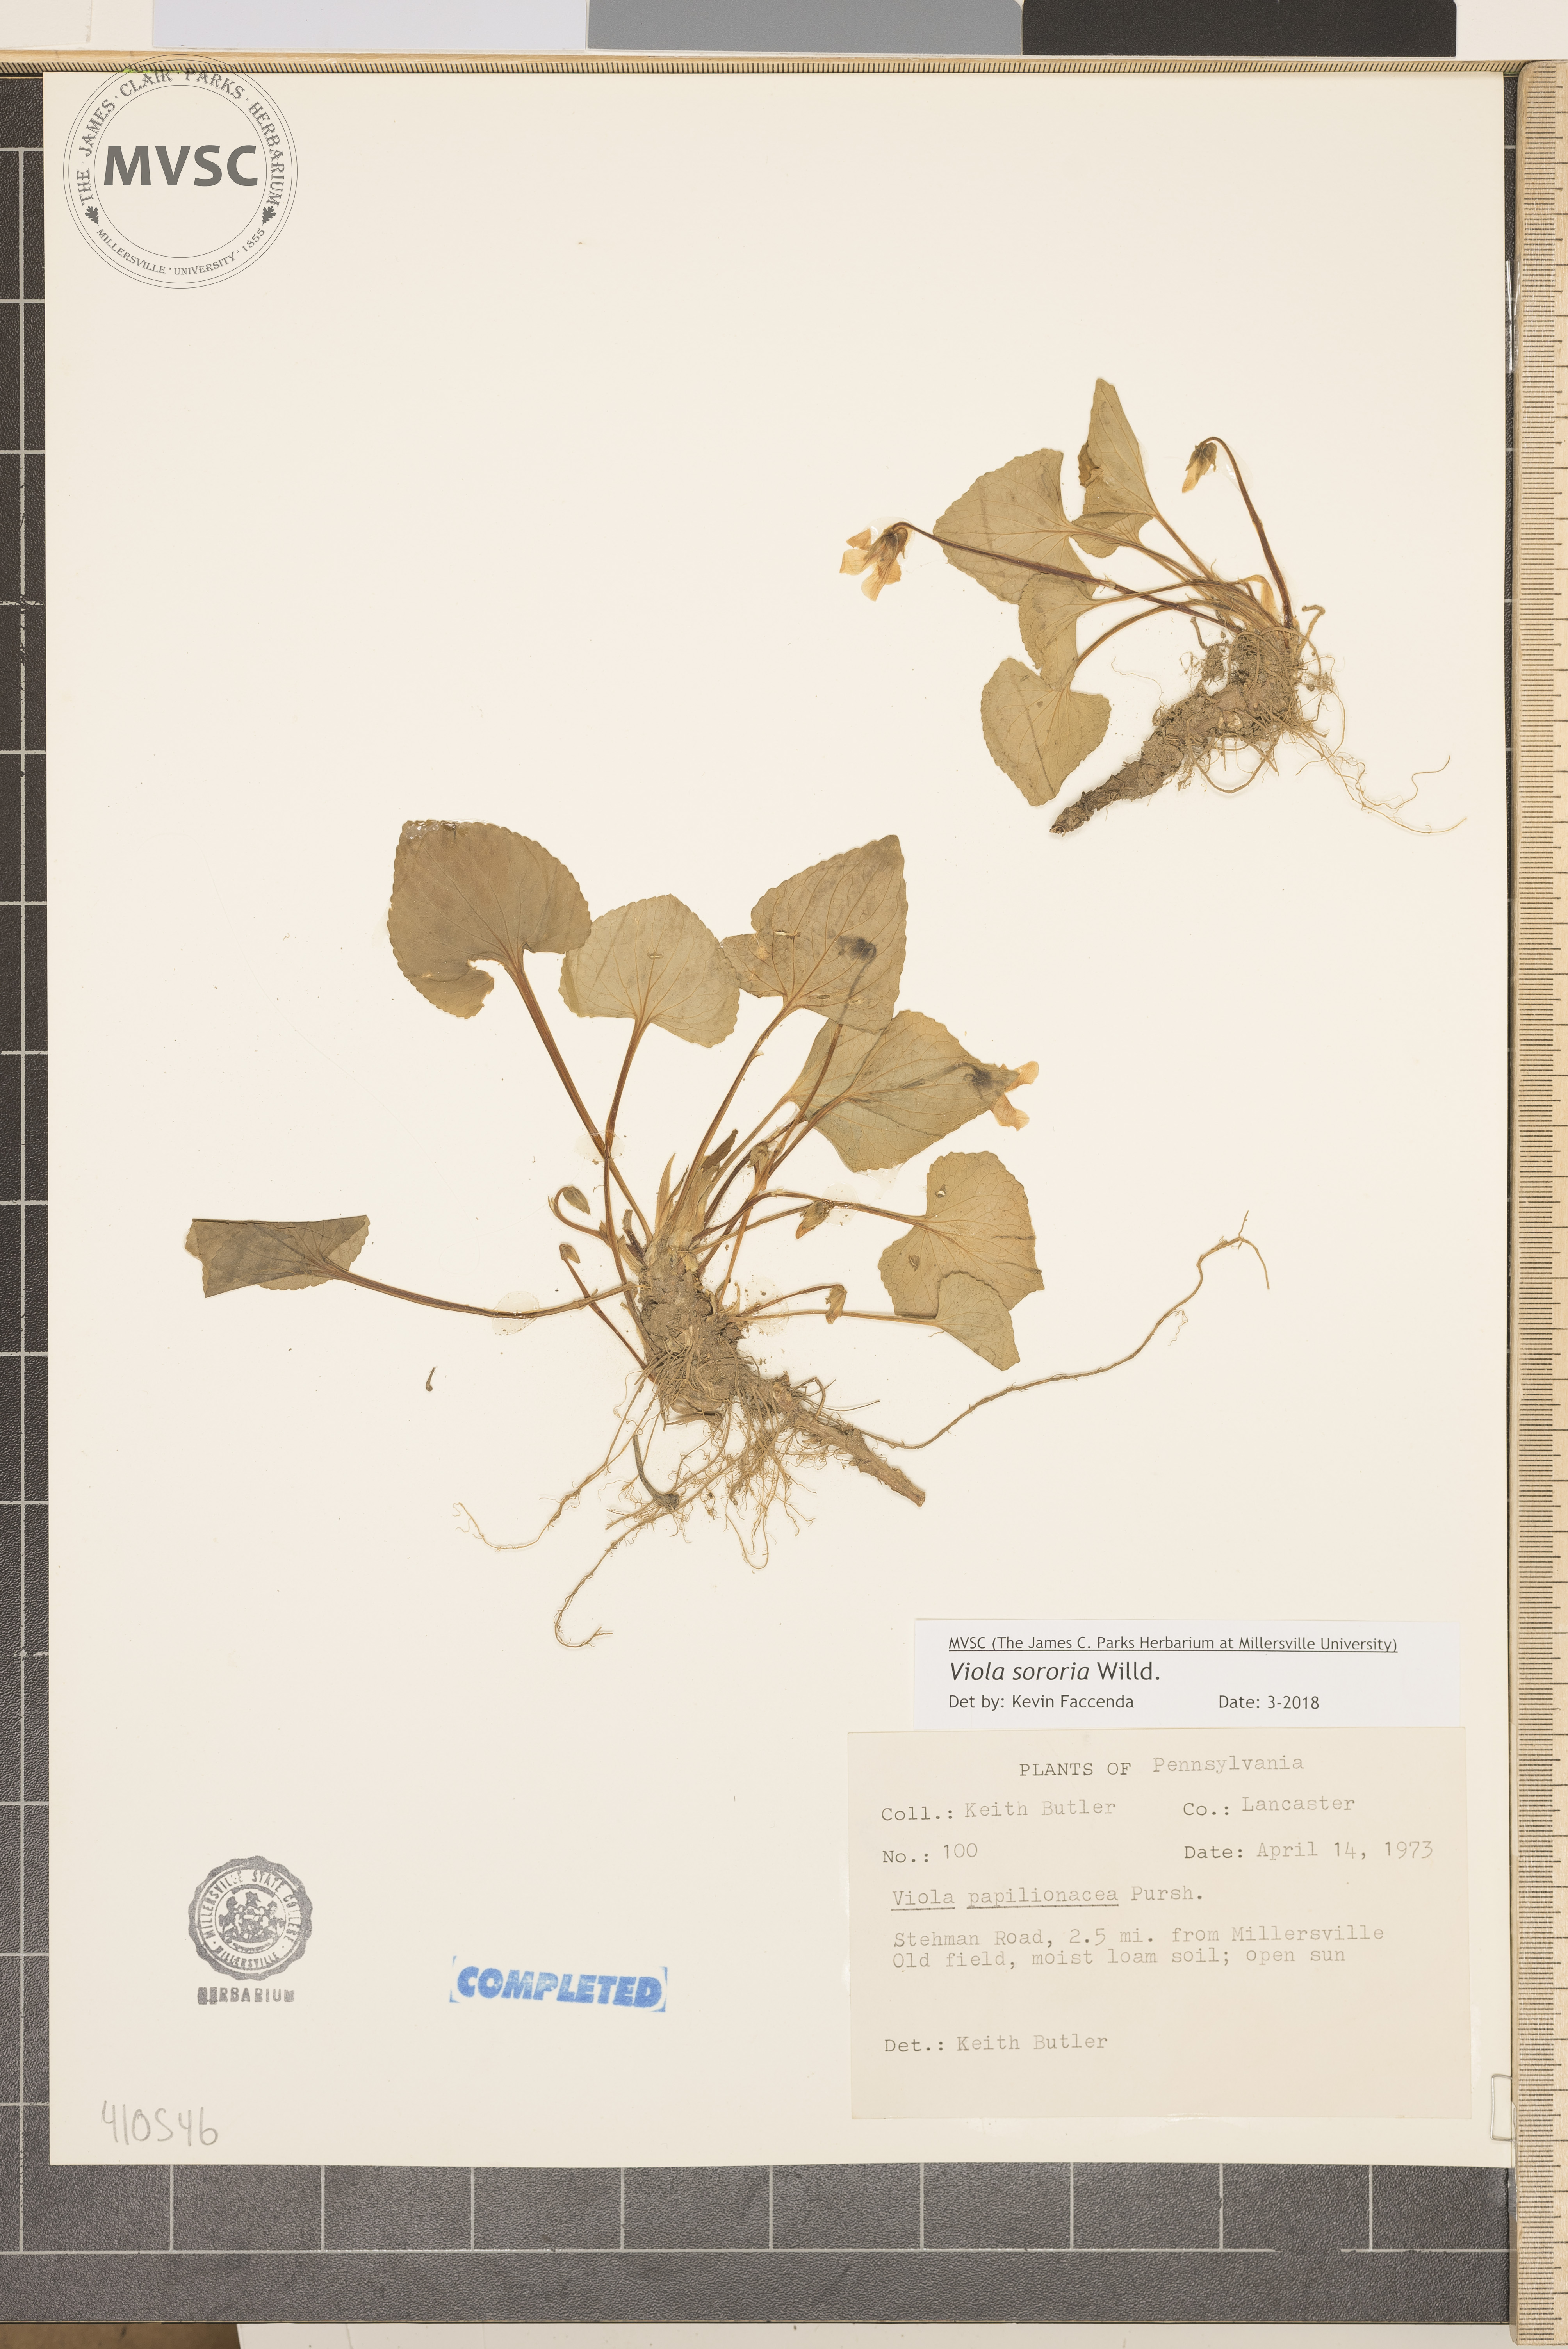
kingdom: Plantae
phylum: Tracheophyta
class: Magnoliopsida
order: Malpighiales
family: Violaceae
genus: Viola
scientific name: Viola sororia
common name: Dooryard violet
